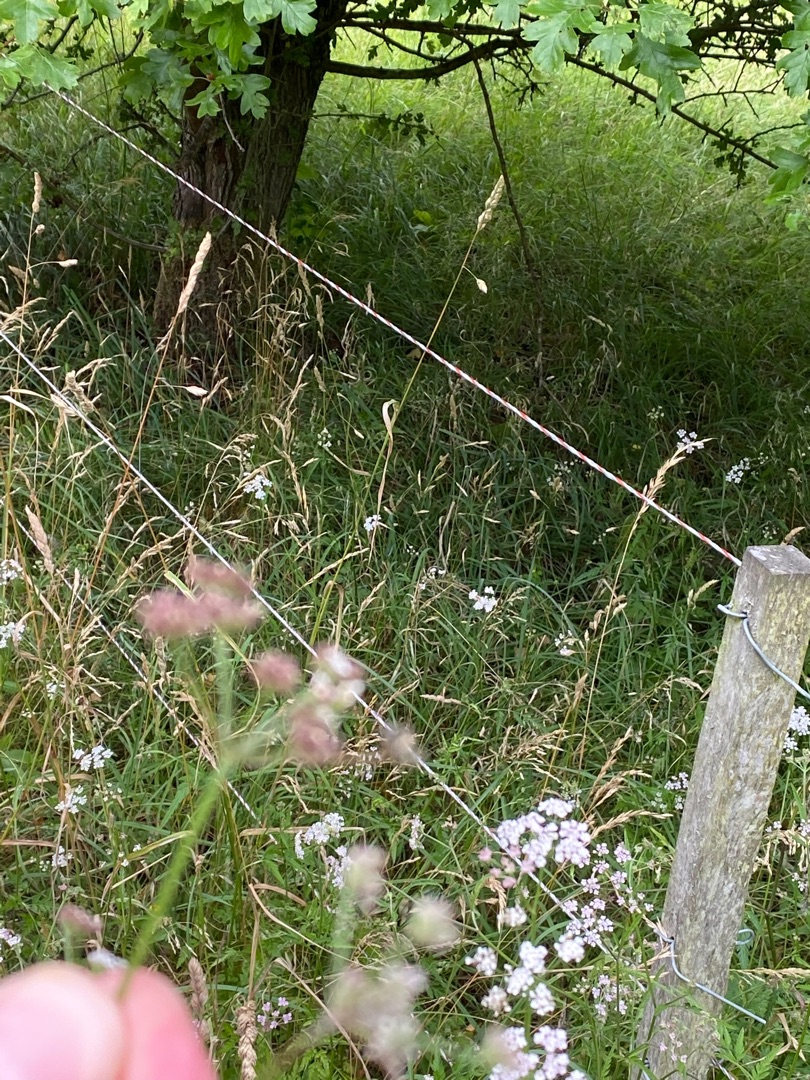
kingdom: Plantae
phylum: Tracheophyta
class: Magnoliopsida
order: Apiales
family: Apiaceae
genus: Torilis
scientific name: Torilis japonica
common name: Hvas randfrø
